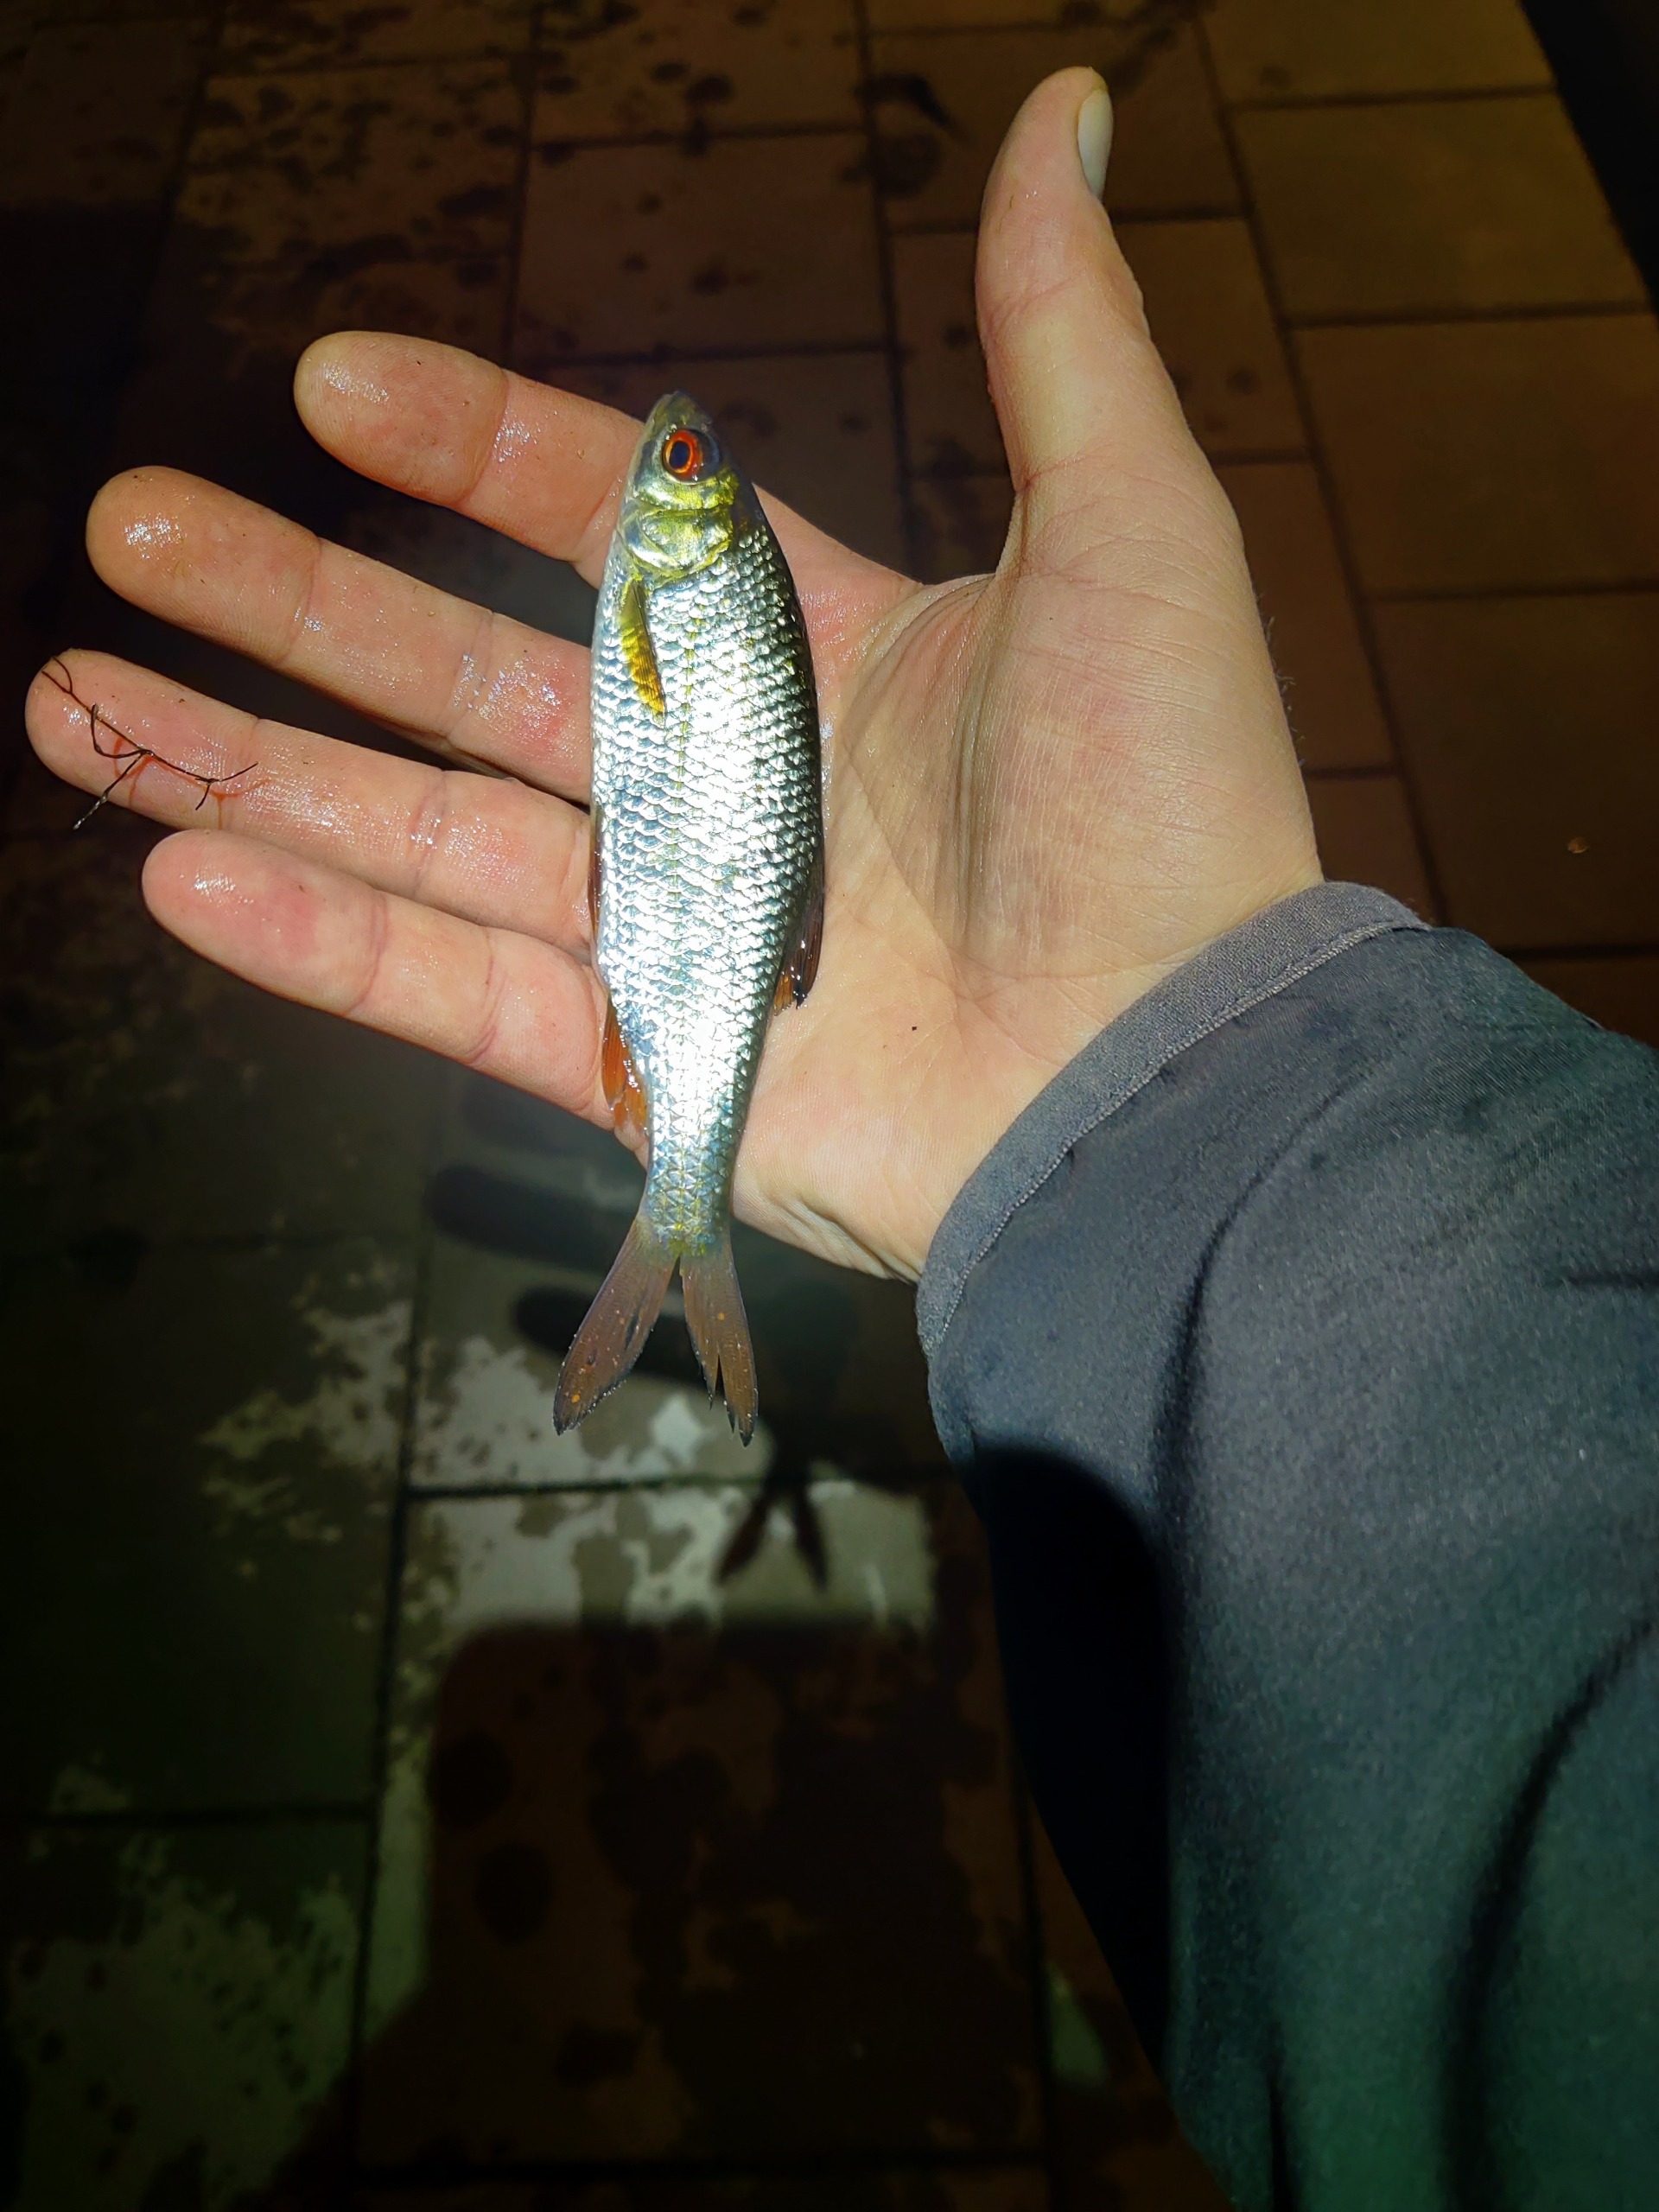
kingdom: Animalia
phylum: Chordata
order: Cypriniformes
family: Cyprinidae
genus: Rutilus
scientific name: Rutilus rutilus
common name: Skalle
